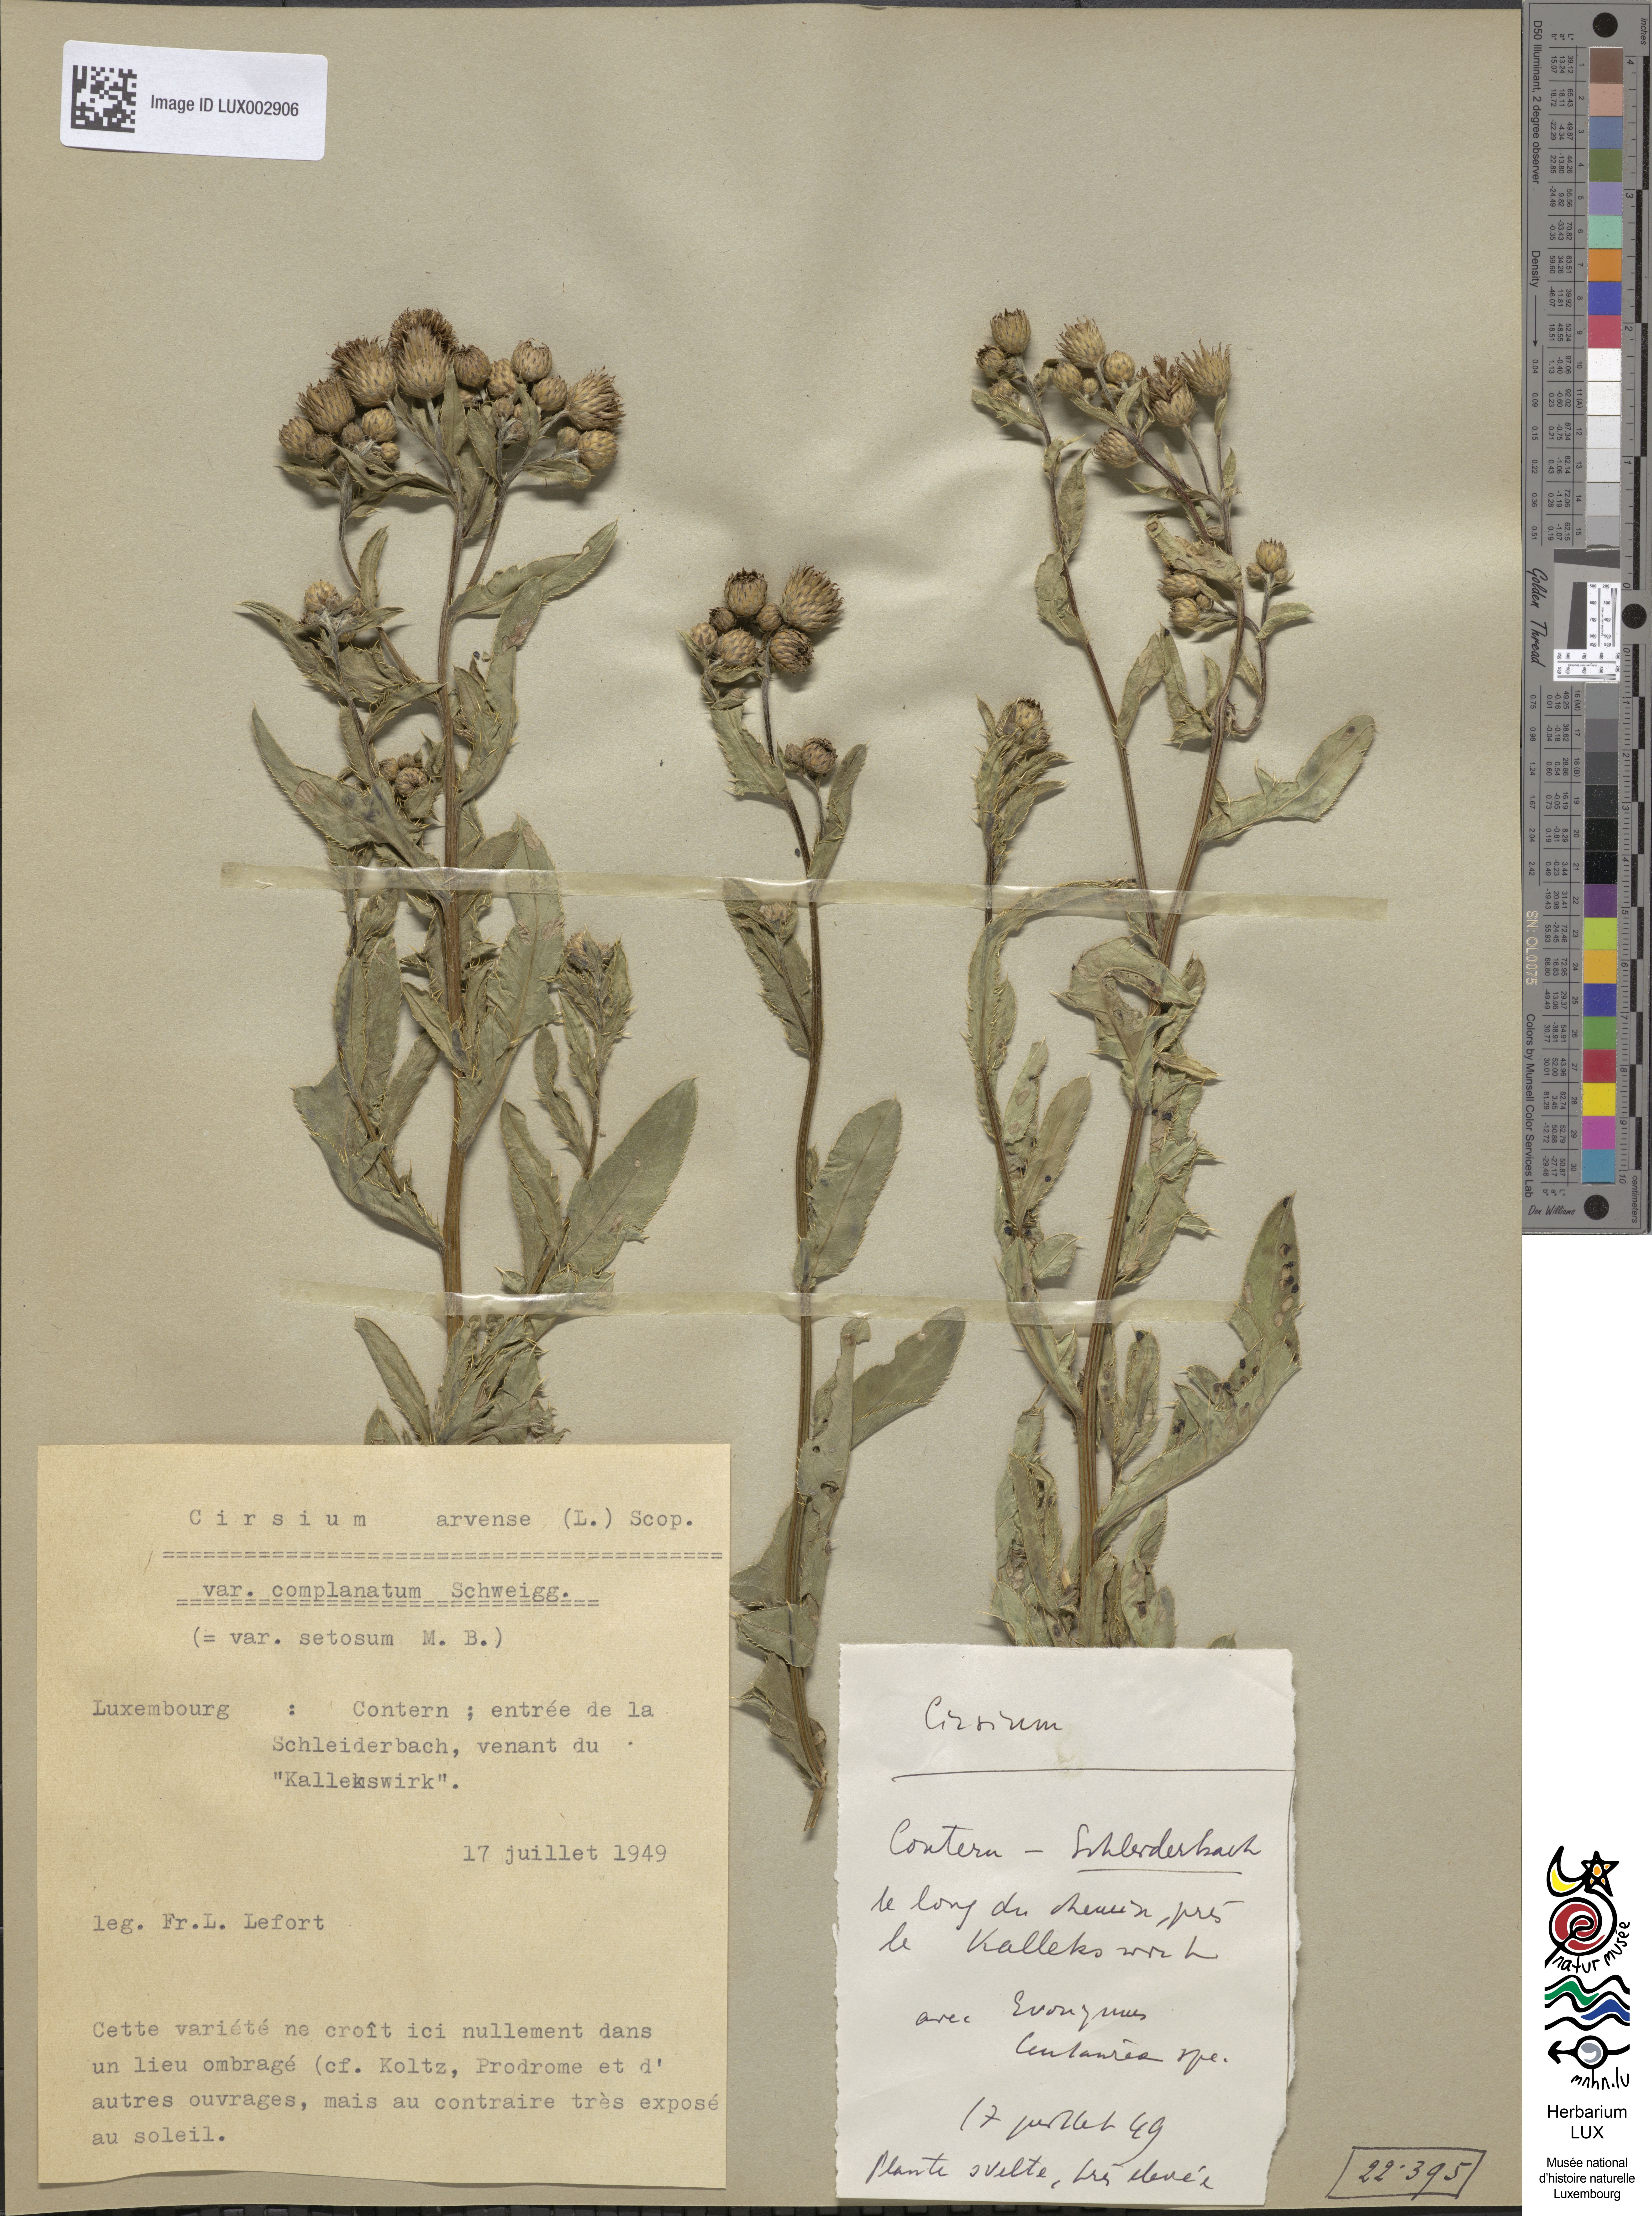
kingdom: Plantae
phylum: Tracheophyta
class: Magnoliopsida
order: Asterales
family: Asteraceae
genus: Cirsium
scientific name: Cirsium arvense
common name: Creeping thistle
